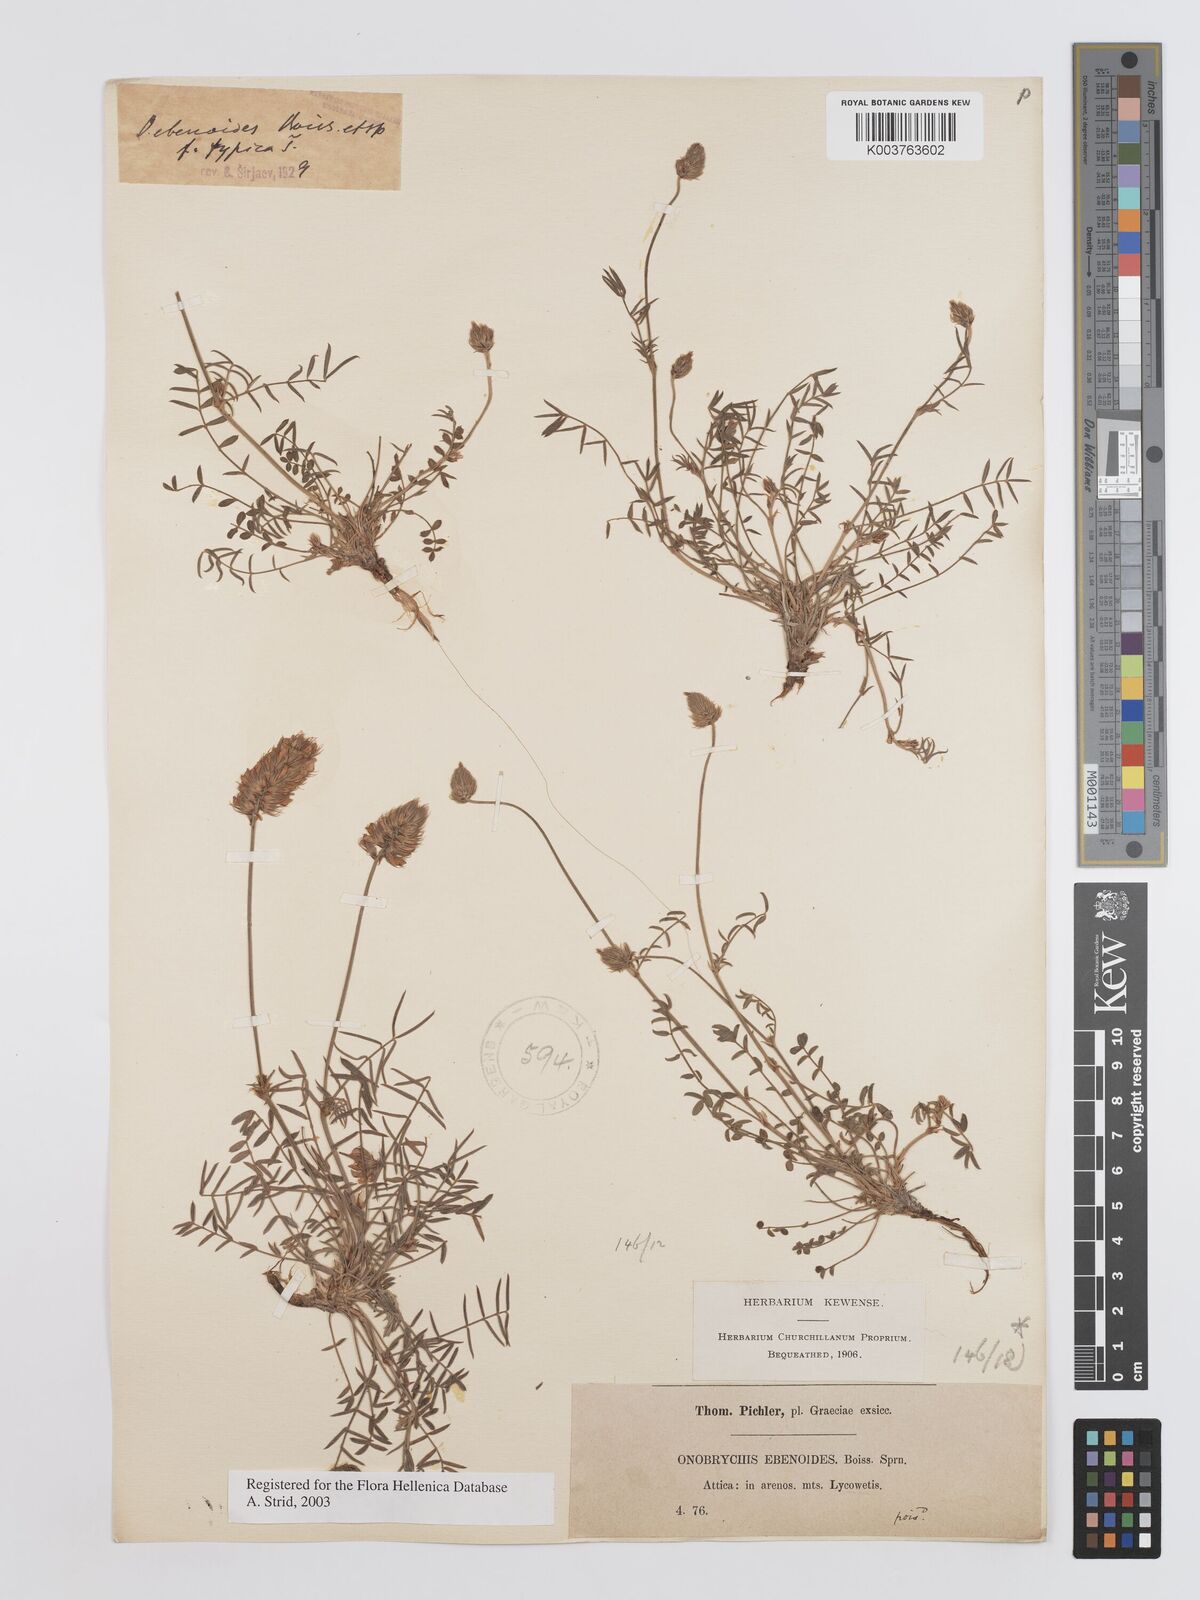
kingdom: Plantae
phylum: Tracheophyta
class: Magnoliopsida
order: Fabales
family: Fabaceae
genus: Onobrychis
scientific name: Onobrychis ebenoides
